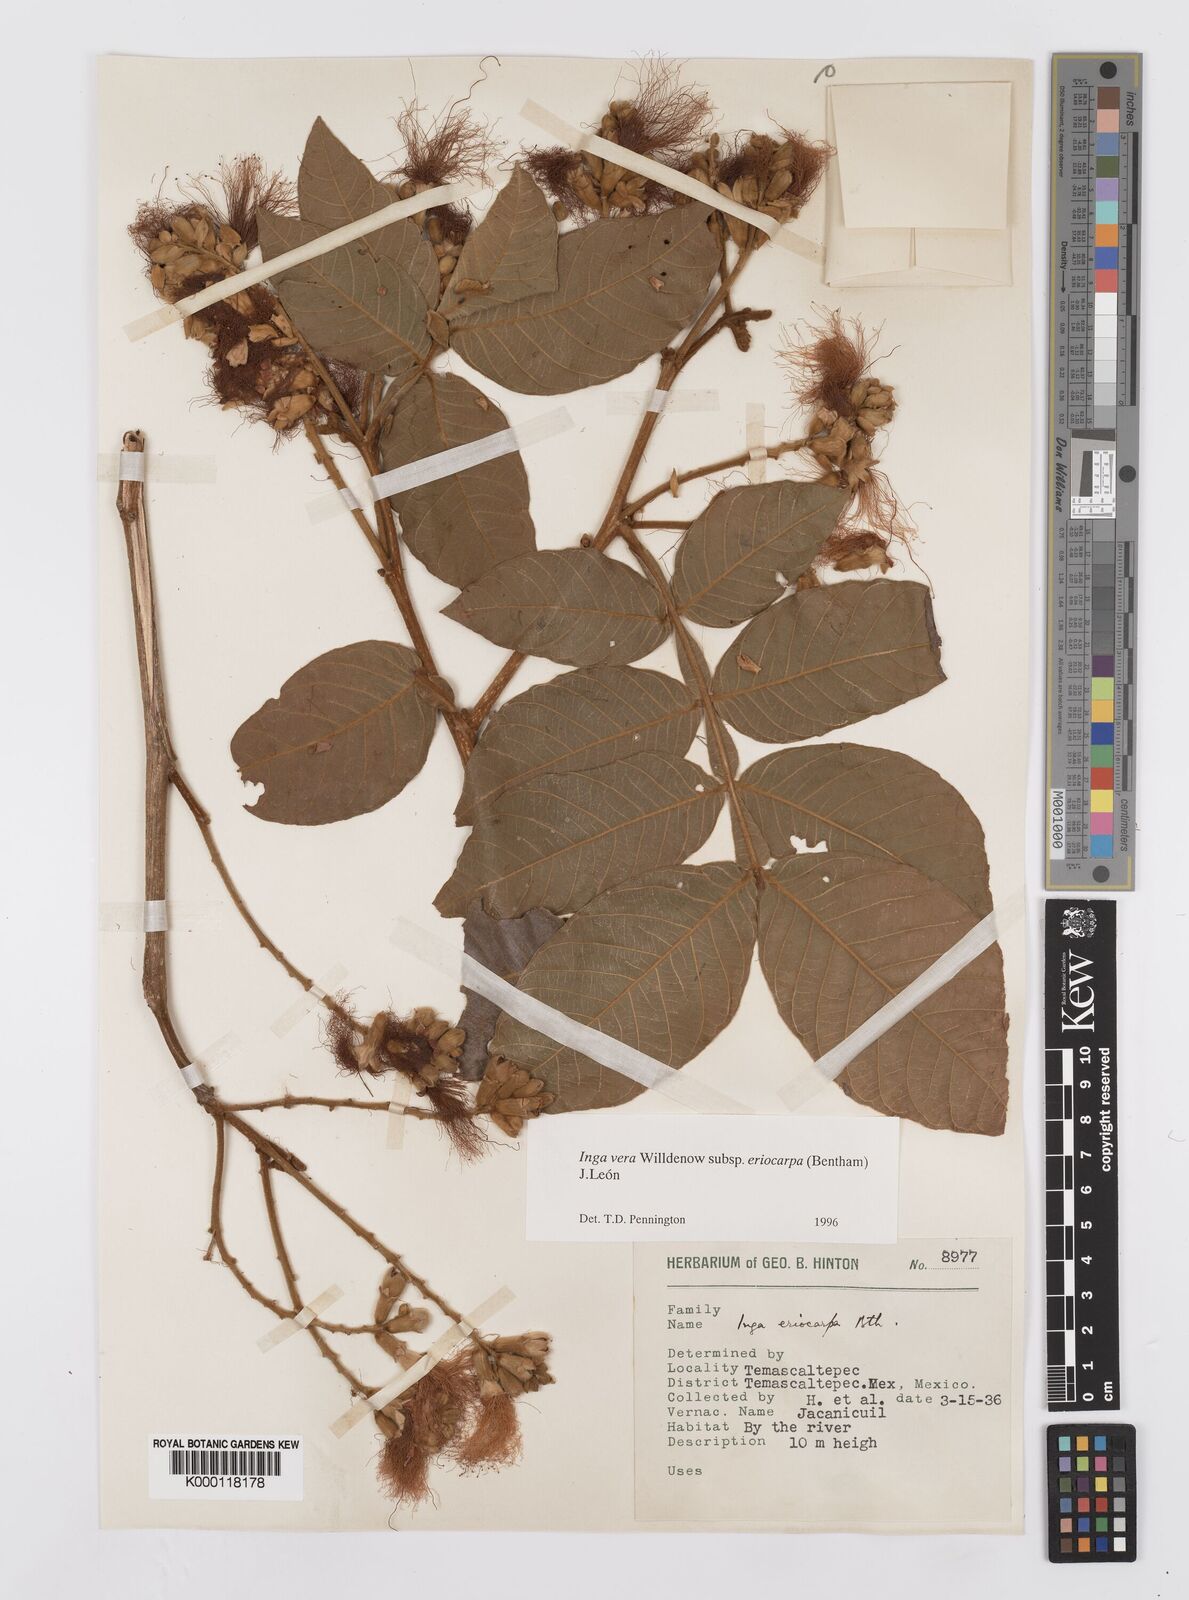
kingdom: Plantae
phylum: Tracheophyta
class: Magnoliopsida
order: Fabales
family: Fabaceae
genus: Inga
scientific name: Inga vera
